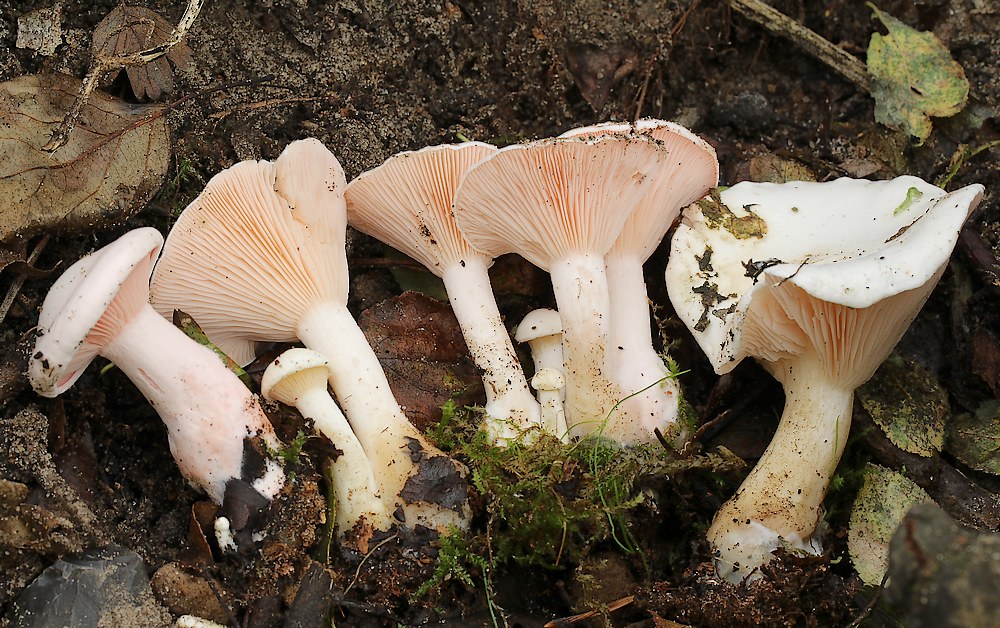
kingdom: Fungi
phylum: Basidiomycota
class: Agaricomycetes
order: Agaricales
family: Tricholomataceae
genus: Pseudoclitopilus
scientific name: Pseudoclitopilus rhodoleucus
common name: rosabladet tragtridderhat
